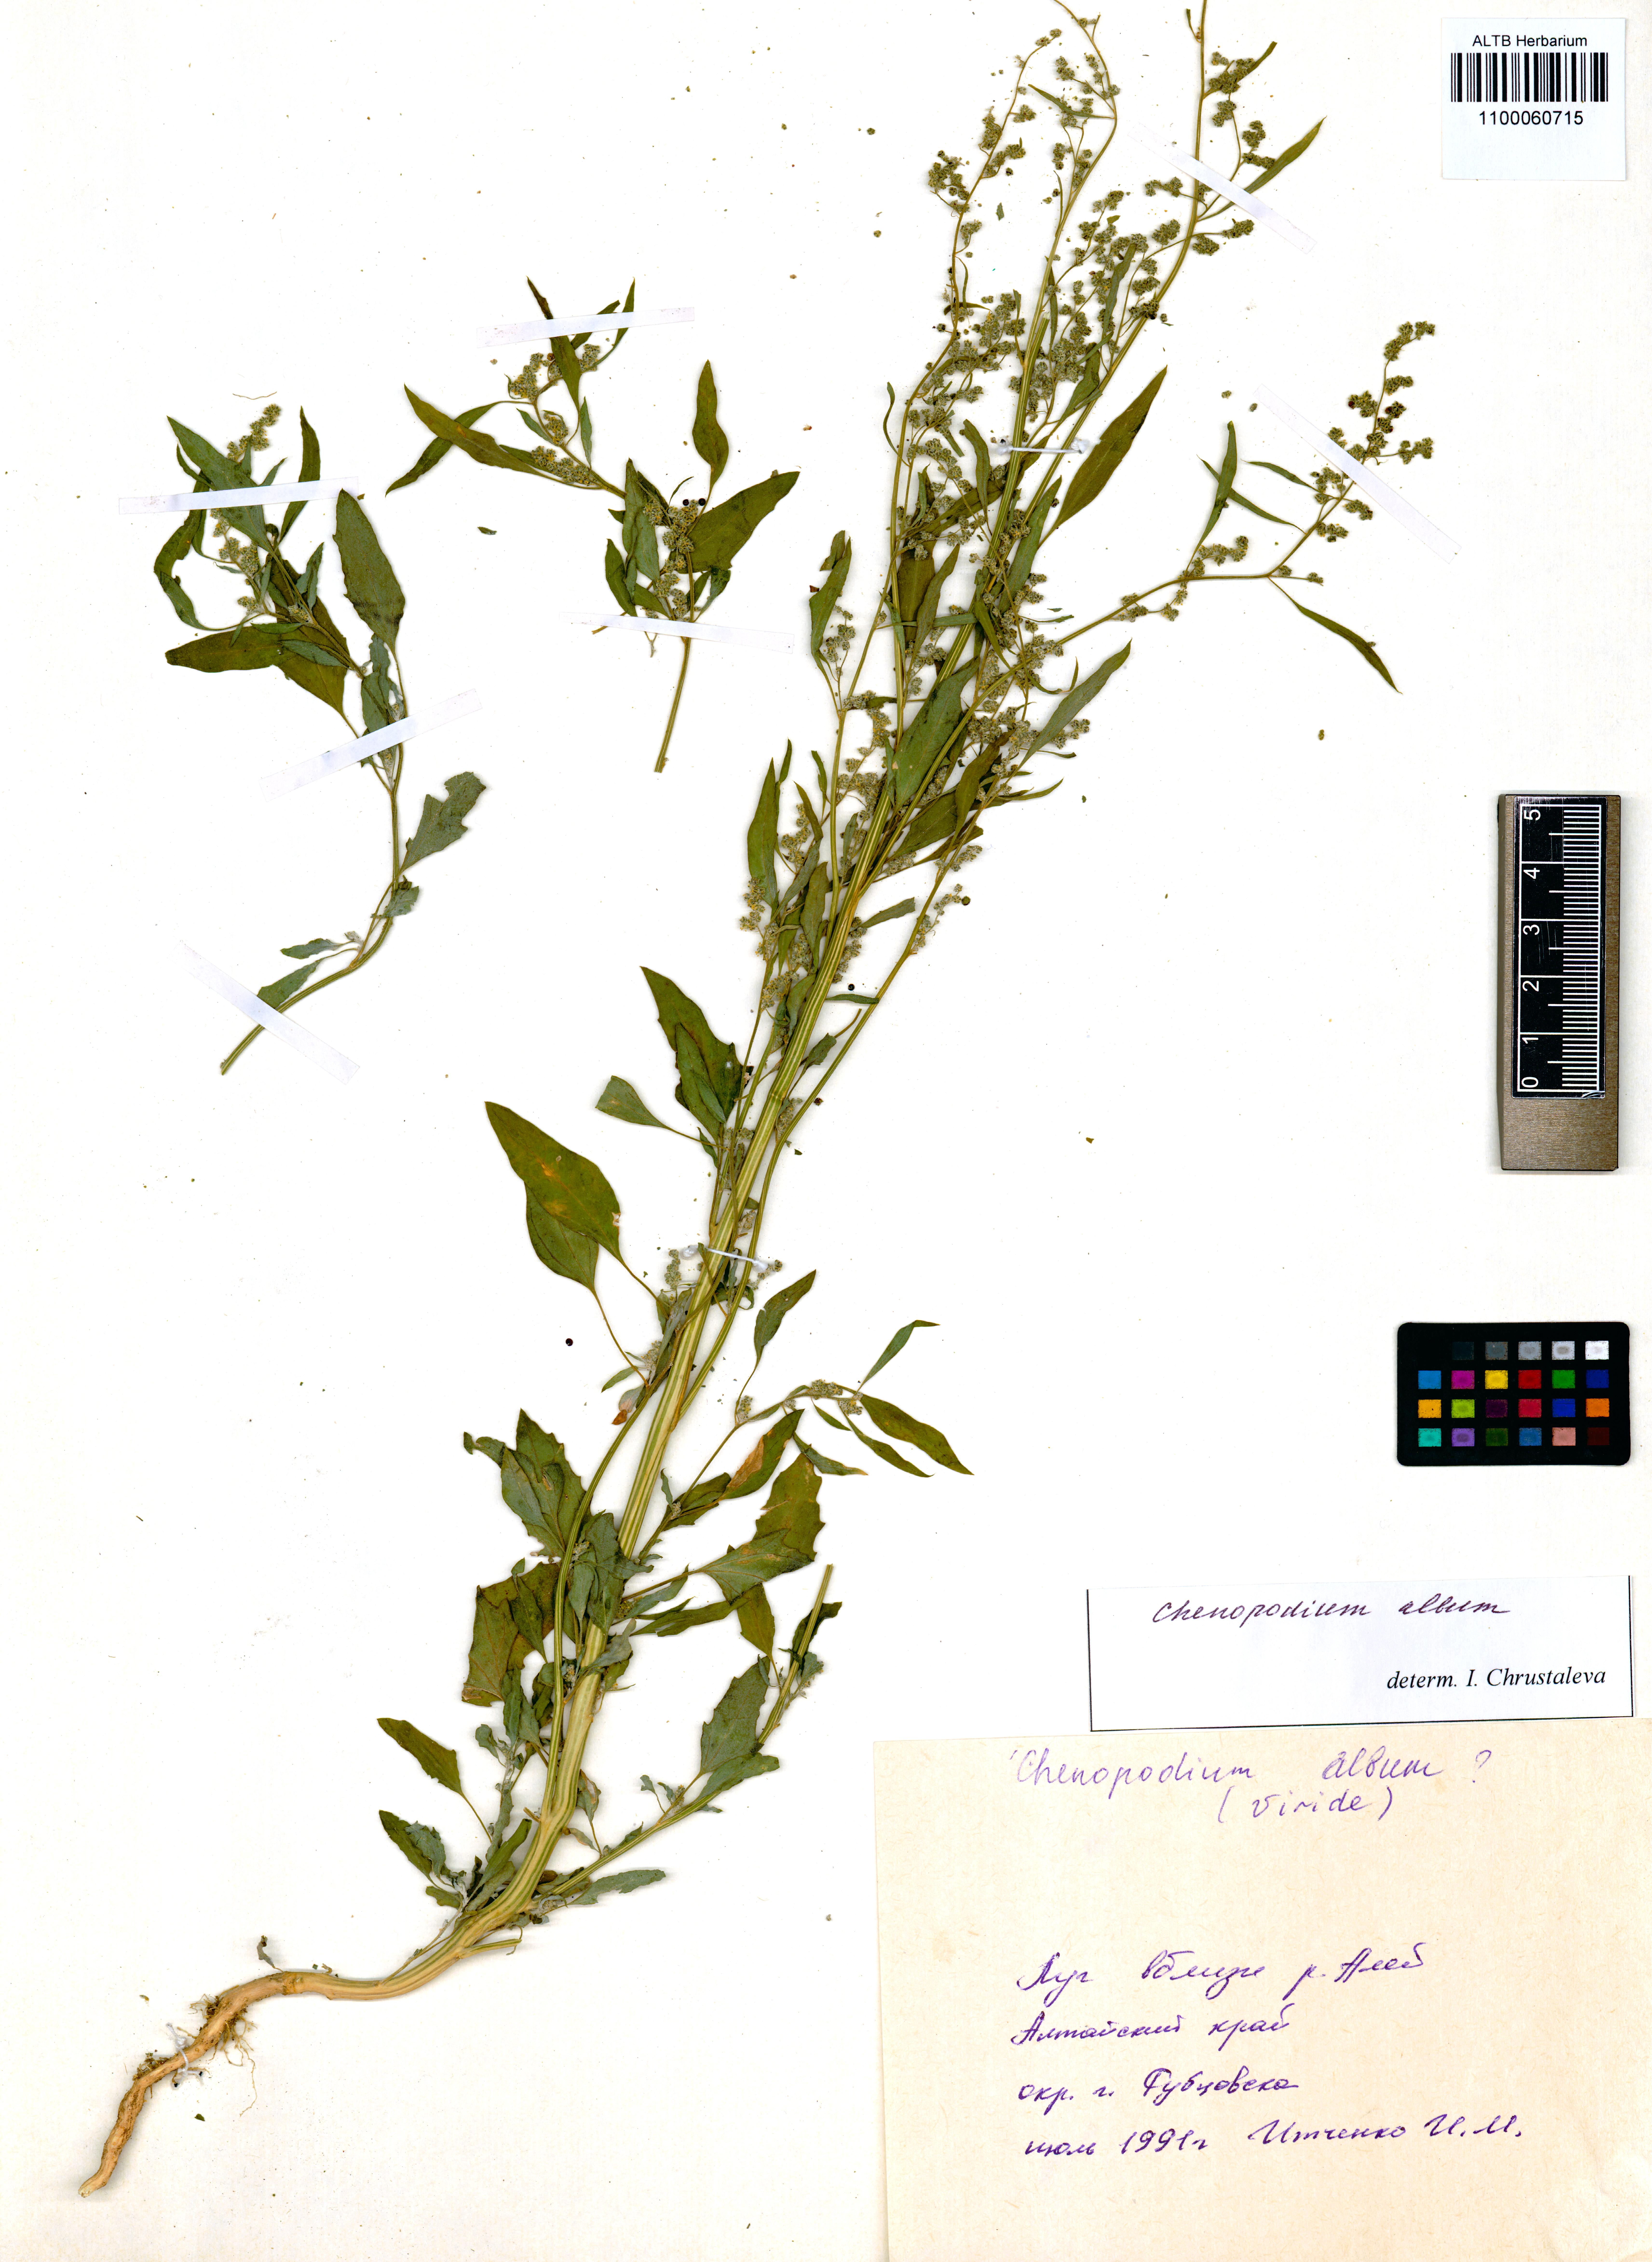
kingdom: Plantae
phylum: Tracheophyta
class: Magnoliopsida
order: Caryophyllales
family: Amaranthaceae
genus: Chenopodium
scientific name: Chenopodium album
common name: Fat-hen
